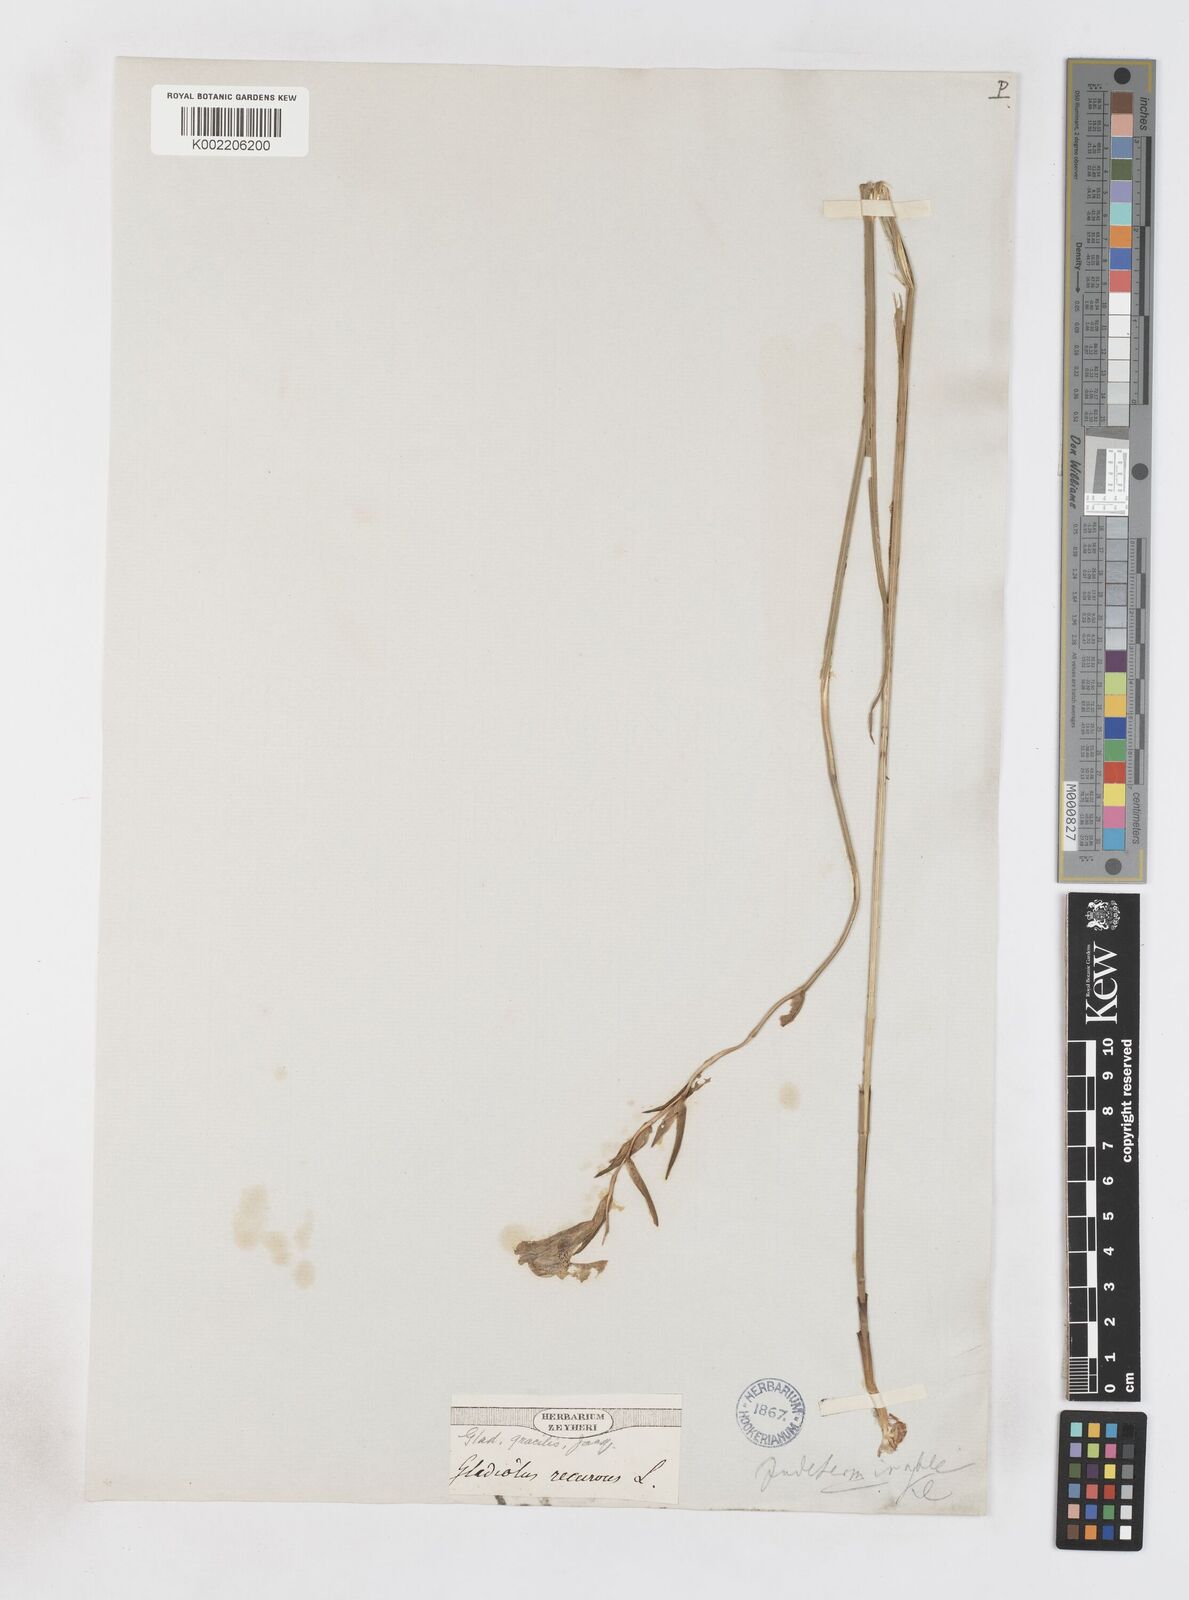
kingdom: Plantae
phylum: Tracheophyta
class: Liliopsida
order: Asparagales
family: Iridaceae
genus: Gladiolus
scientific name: Gladiolus gracilis
